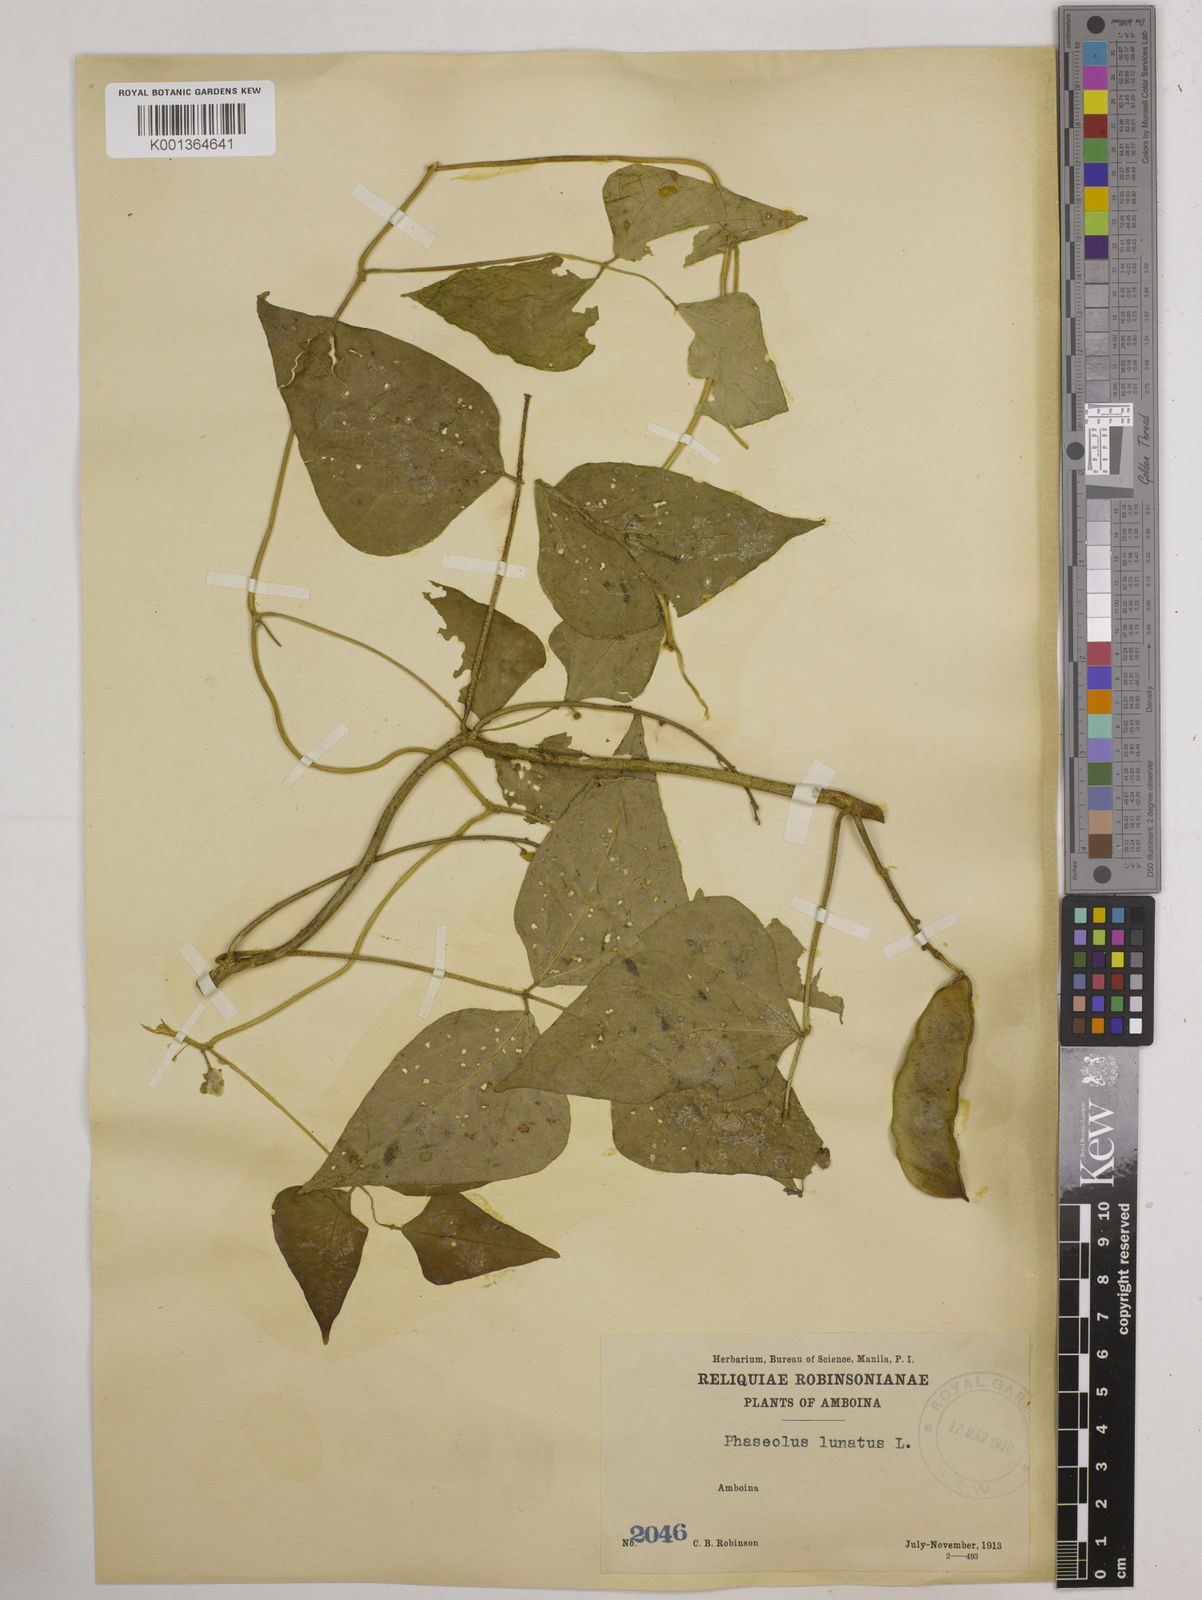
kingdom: Plantae
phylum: Tracheophyta
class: Magnoliopsida
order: Fabales
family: Fabaceae
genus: Phaseolus
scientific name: Phaseolus lunatus
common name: Sieva bean
